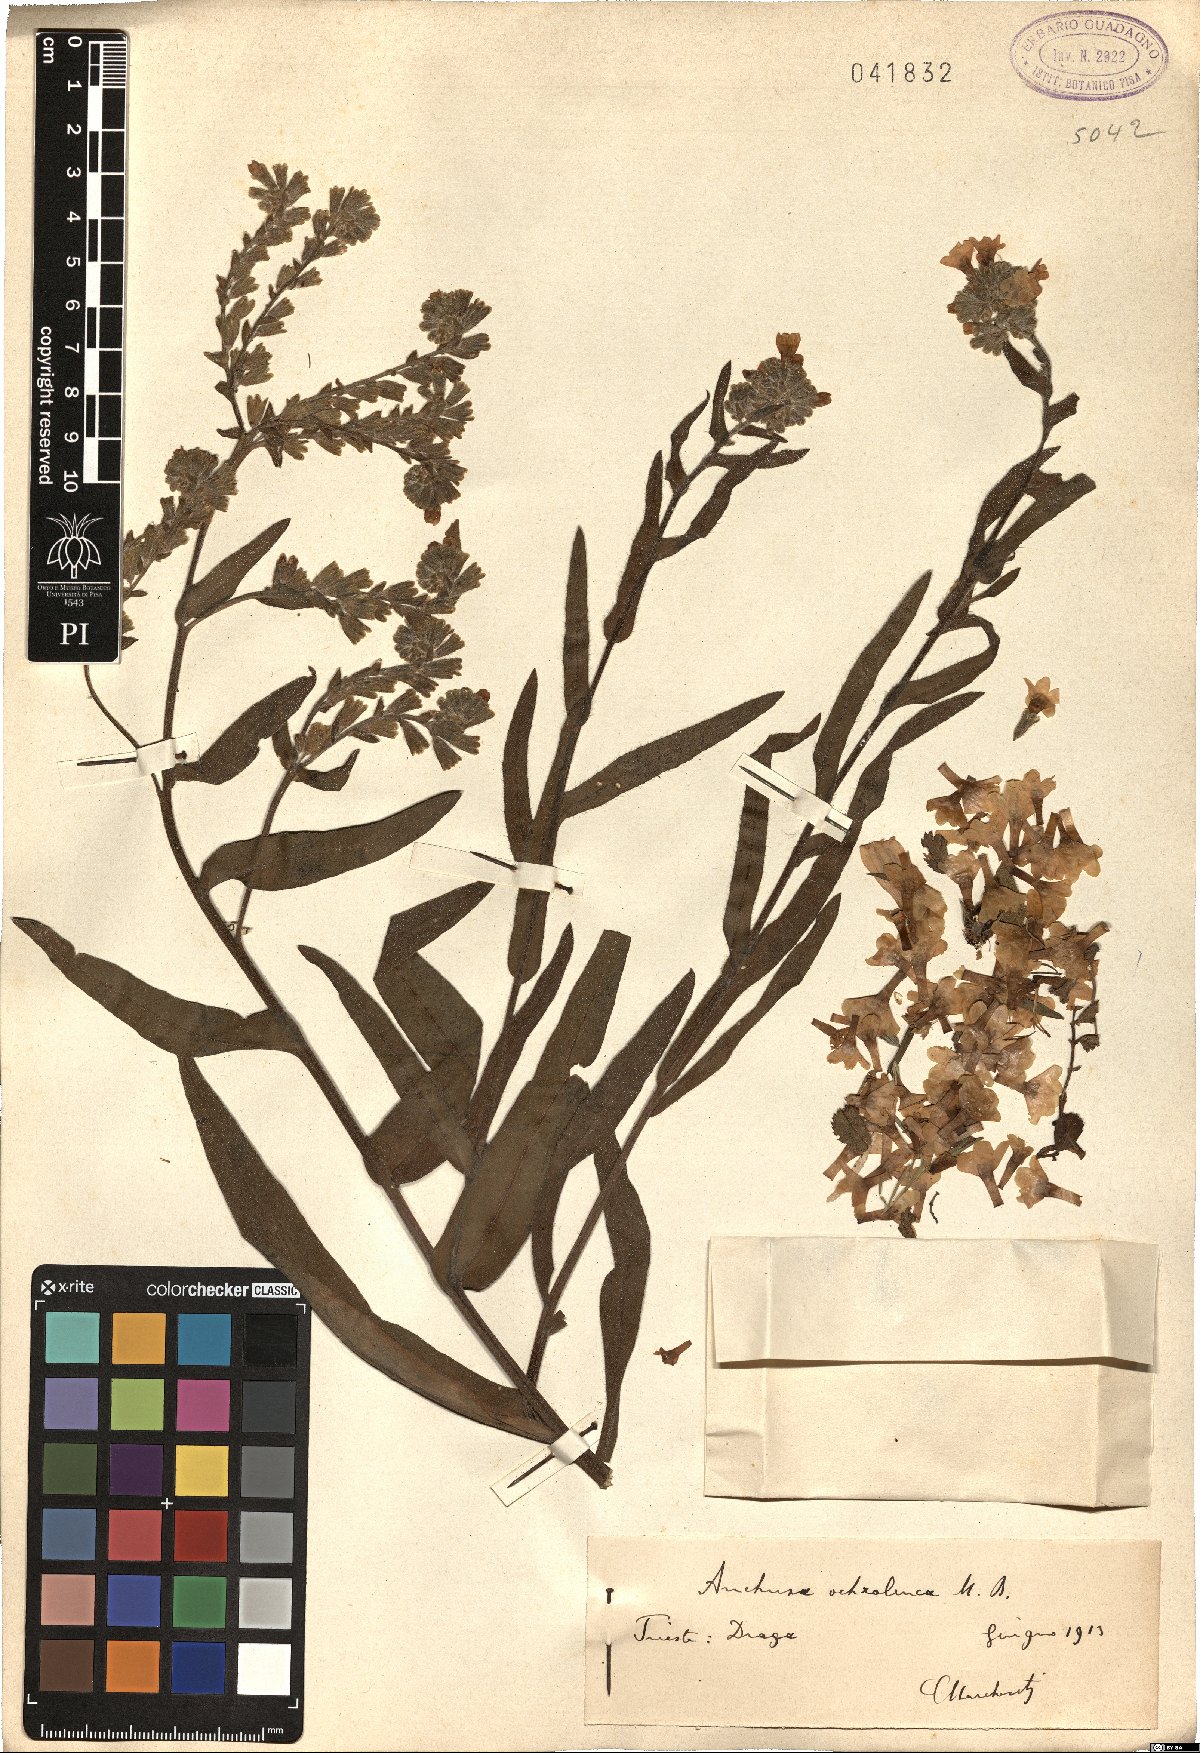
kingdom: Plantae
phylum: Tracheophyta
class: Magnoliopsida
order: Boraginales
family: Boraginaceae
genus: Anchusa
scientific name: Anchusa ochroleuca
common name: Yellow alkanet
